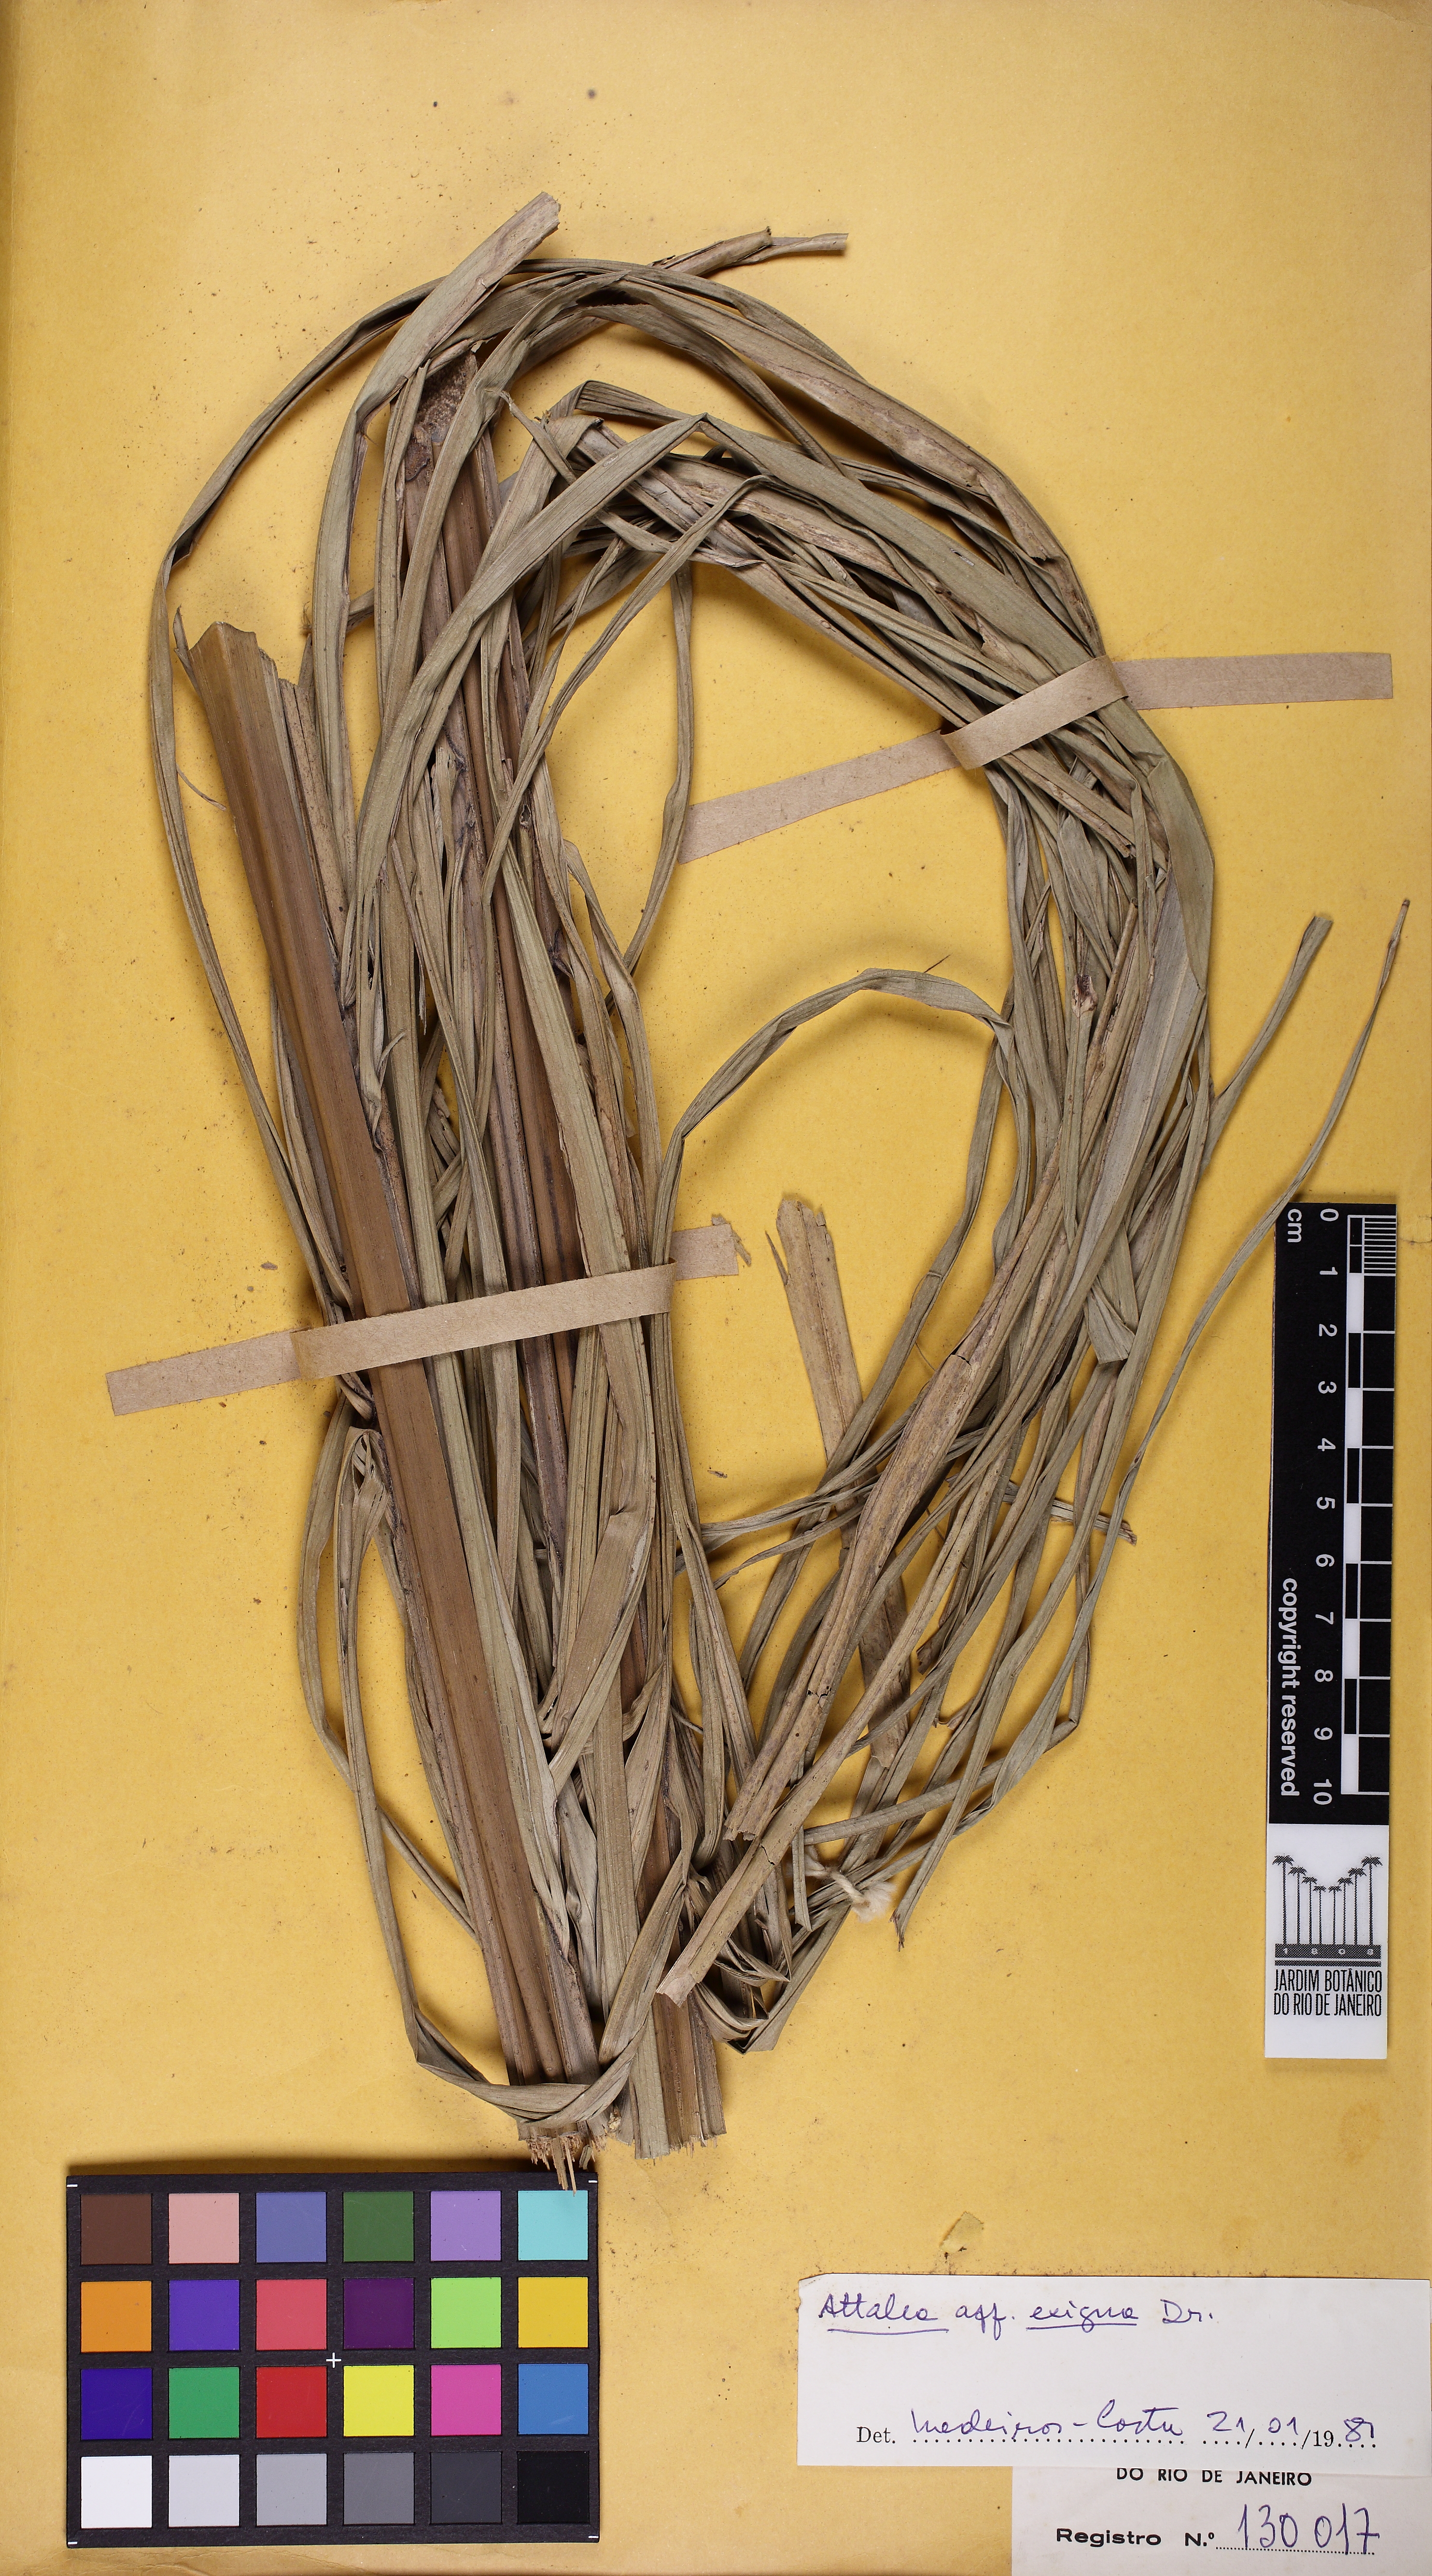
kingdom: Plantae
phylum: Tracheophyta
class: Liliopsida
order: Arecales
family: Arecaceae
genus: Attalea
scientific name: Attalea exigua
